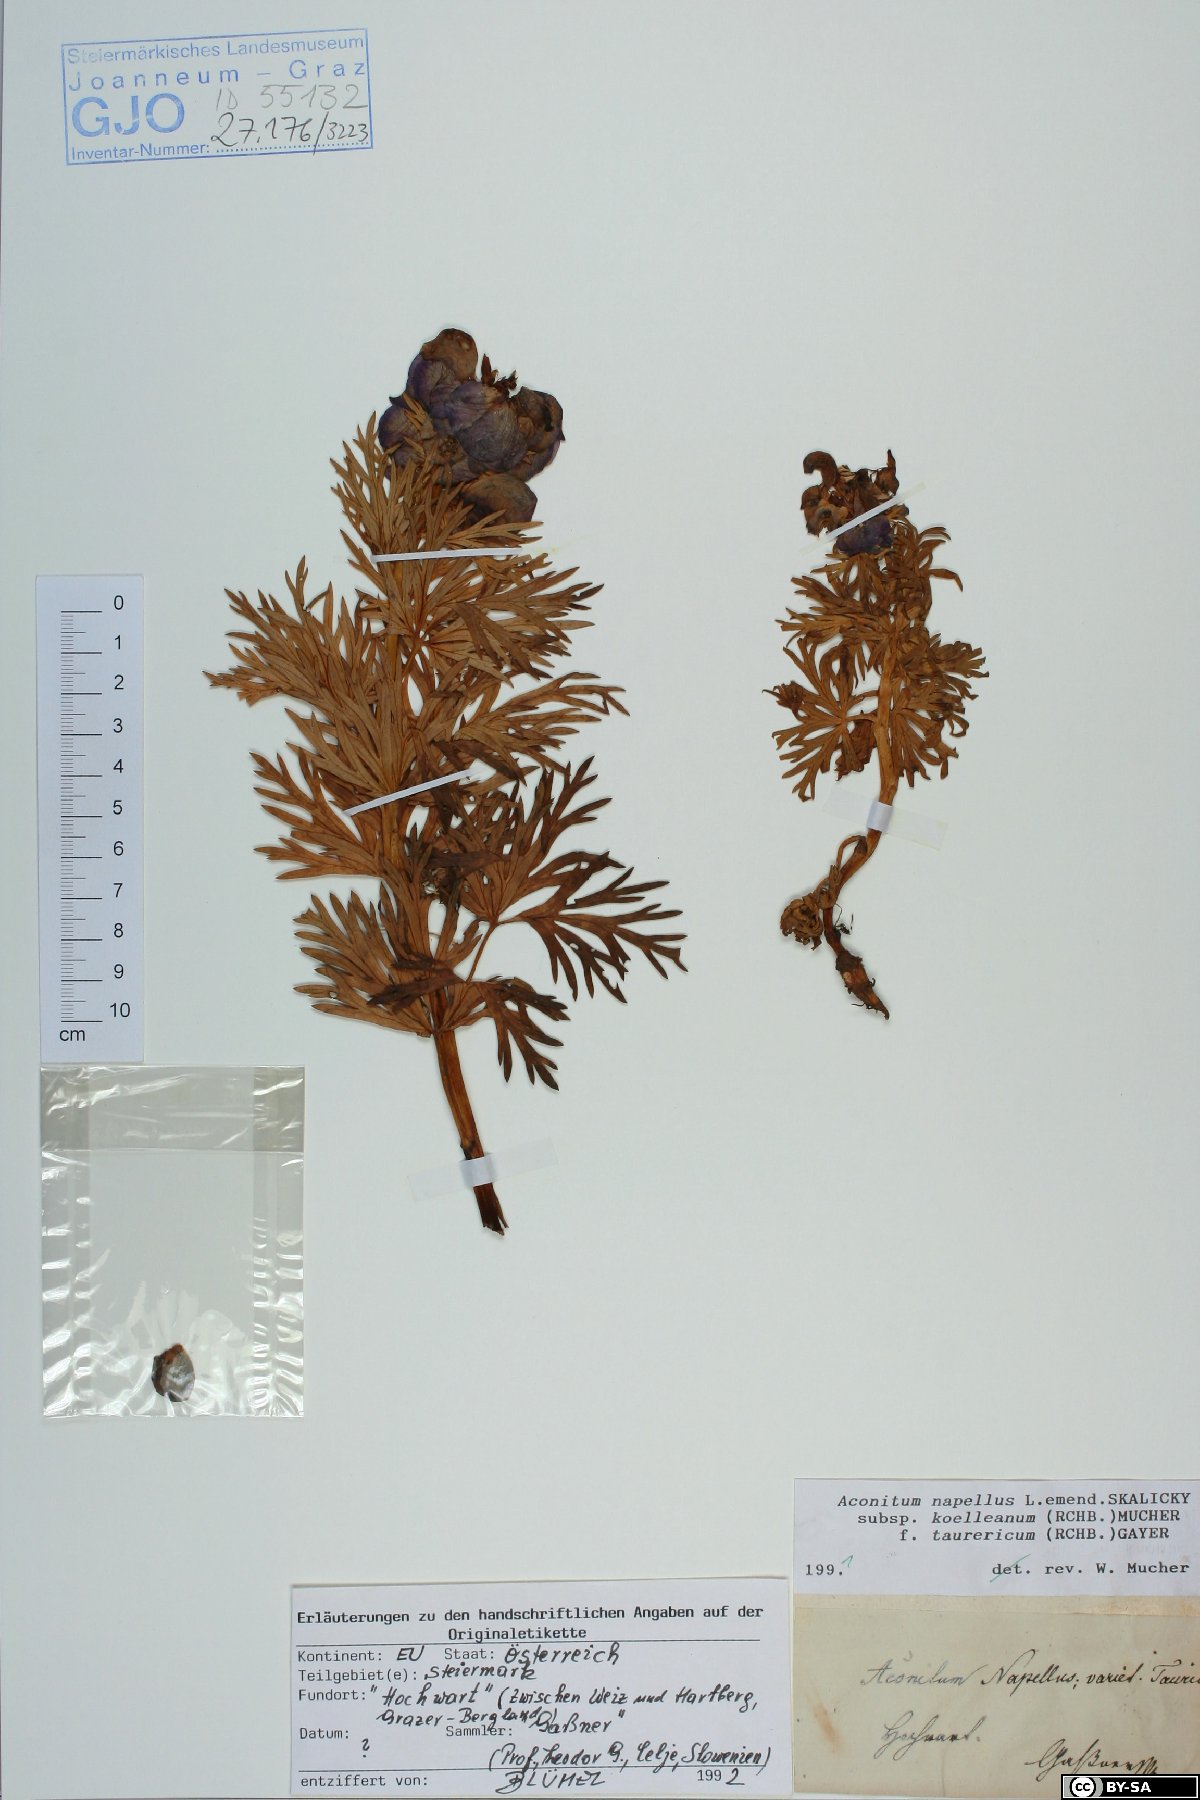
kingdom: Plantae
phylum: Tracheophyta
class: Magnoliopsida
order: Ranunculales
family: Ranunculaceae
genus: Aconitum
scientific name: Aconitum tauricum
